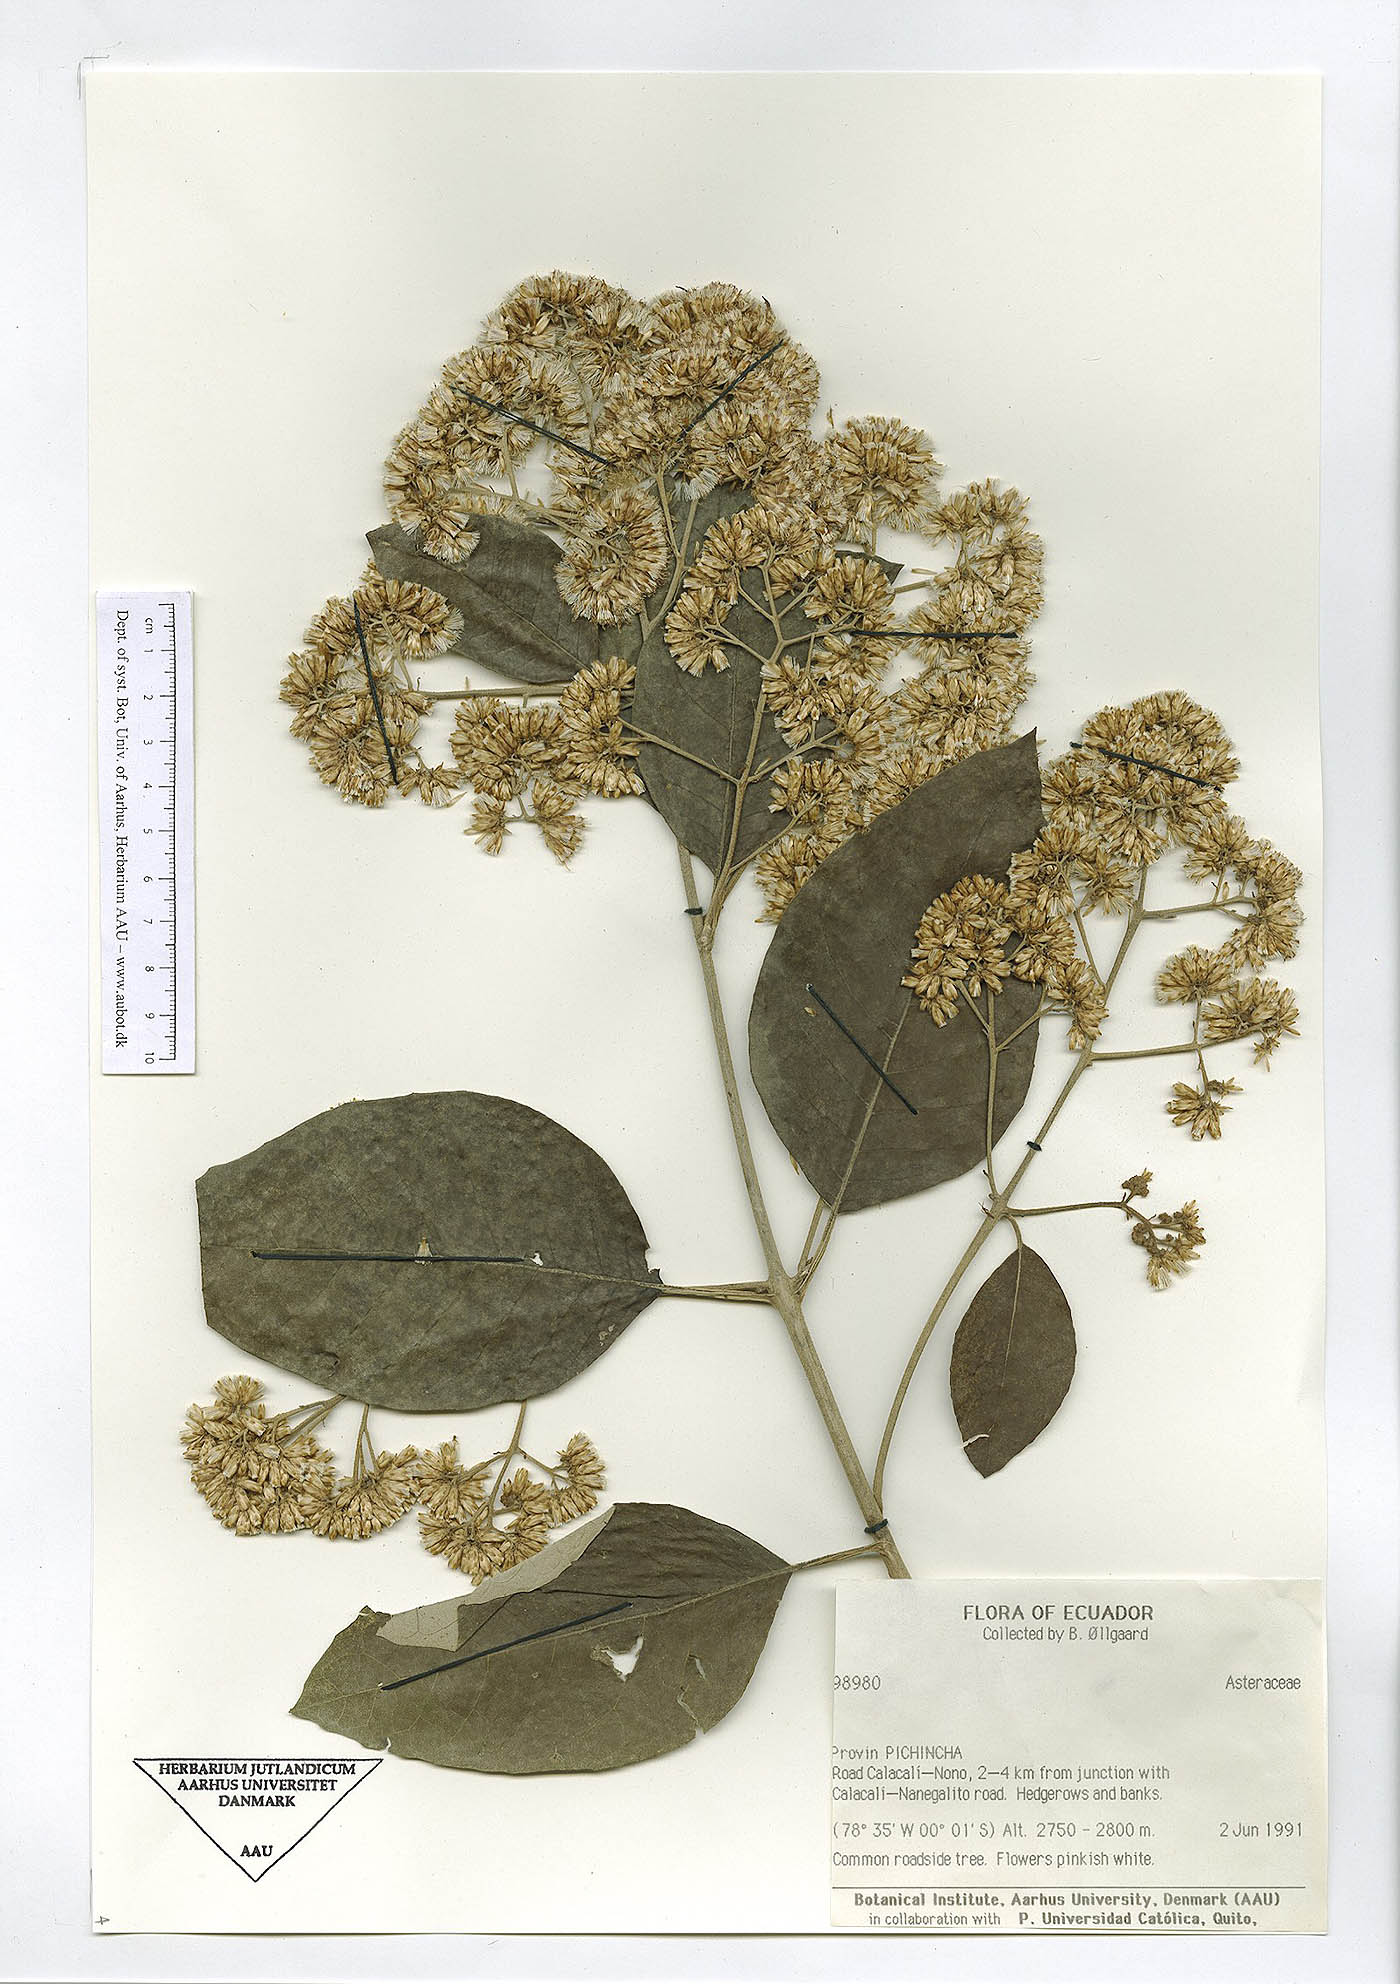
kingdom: Plantae
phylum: Tracheophyta
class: Magnoliopsida
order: Asterales
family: Asteraceae
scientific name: Asteraceae
